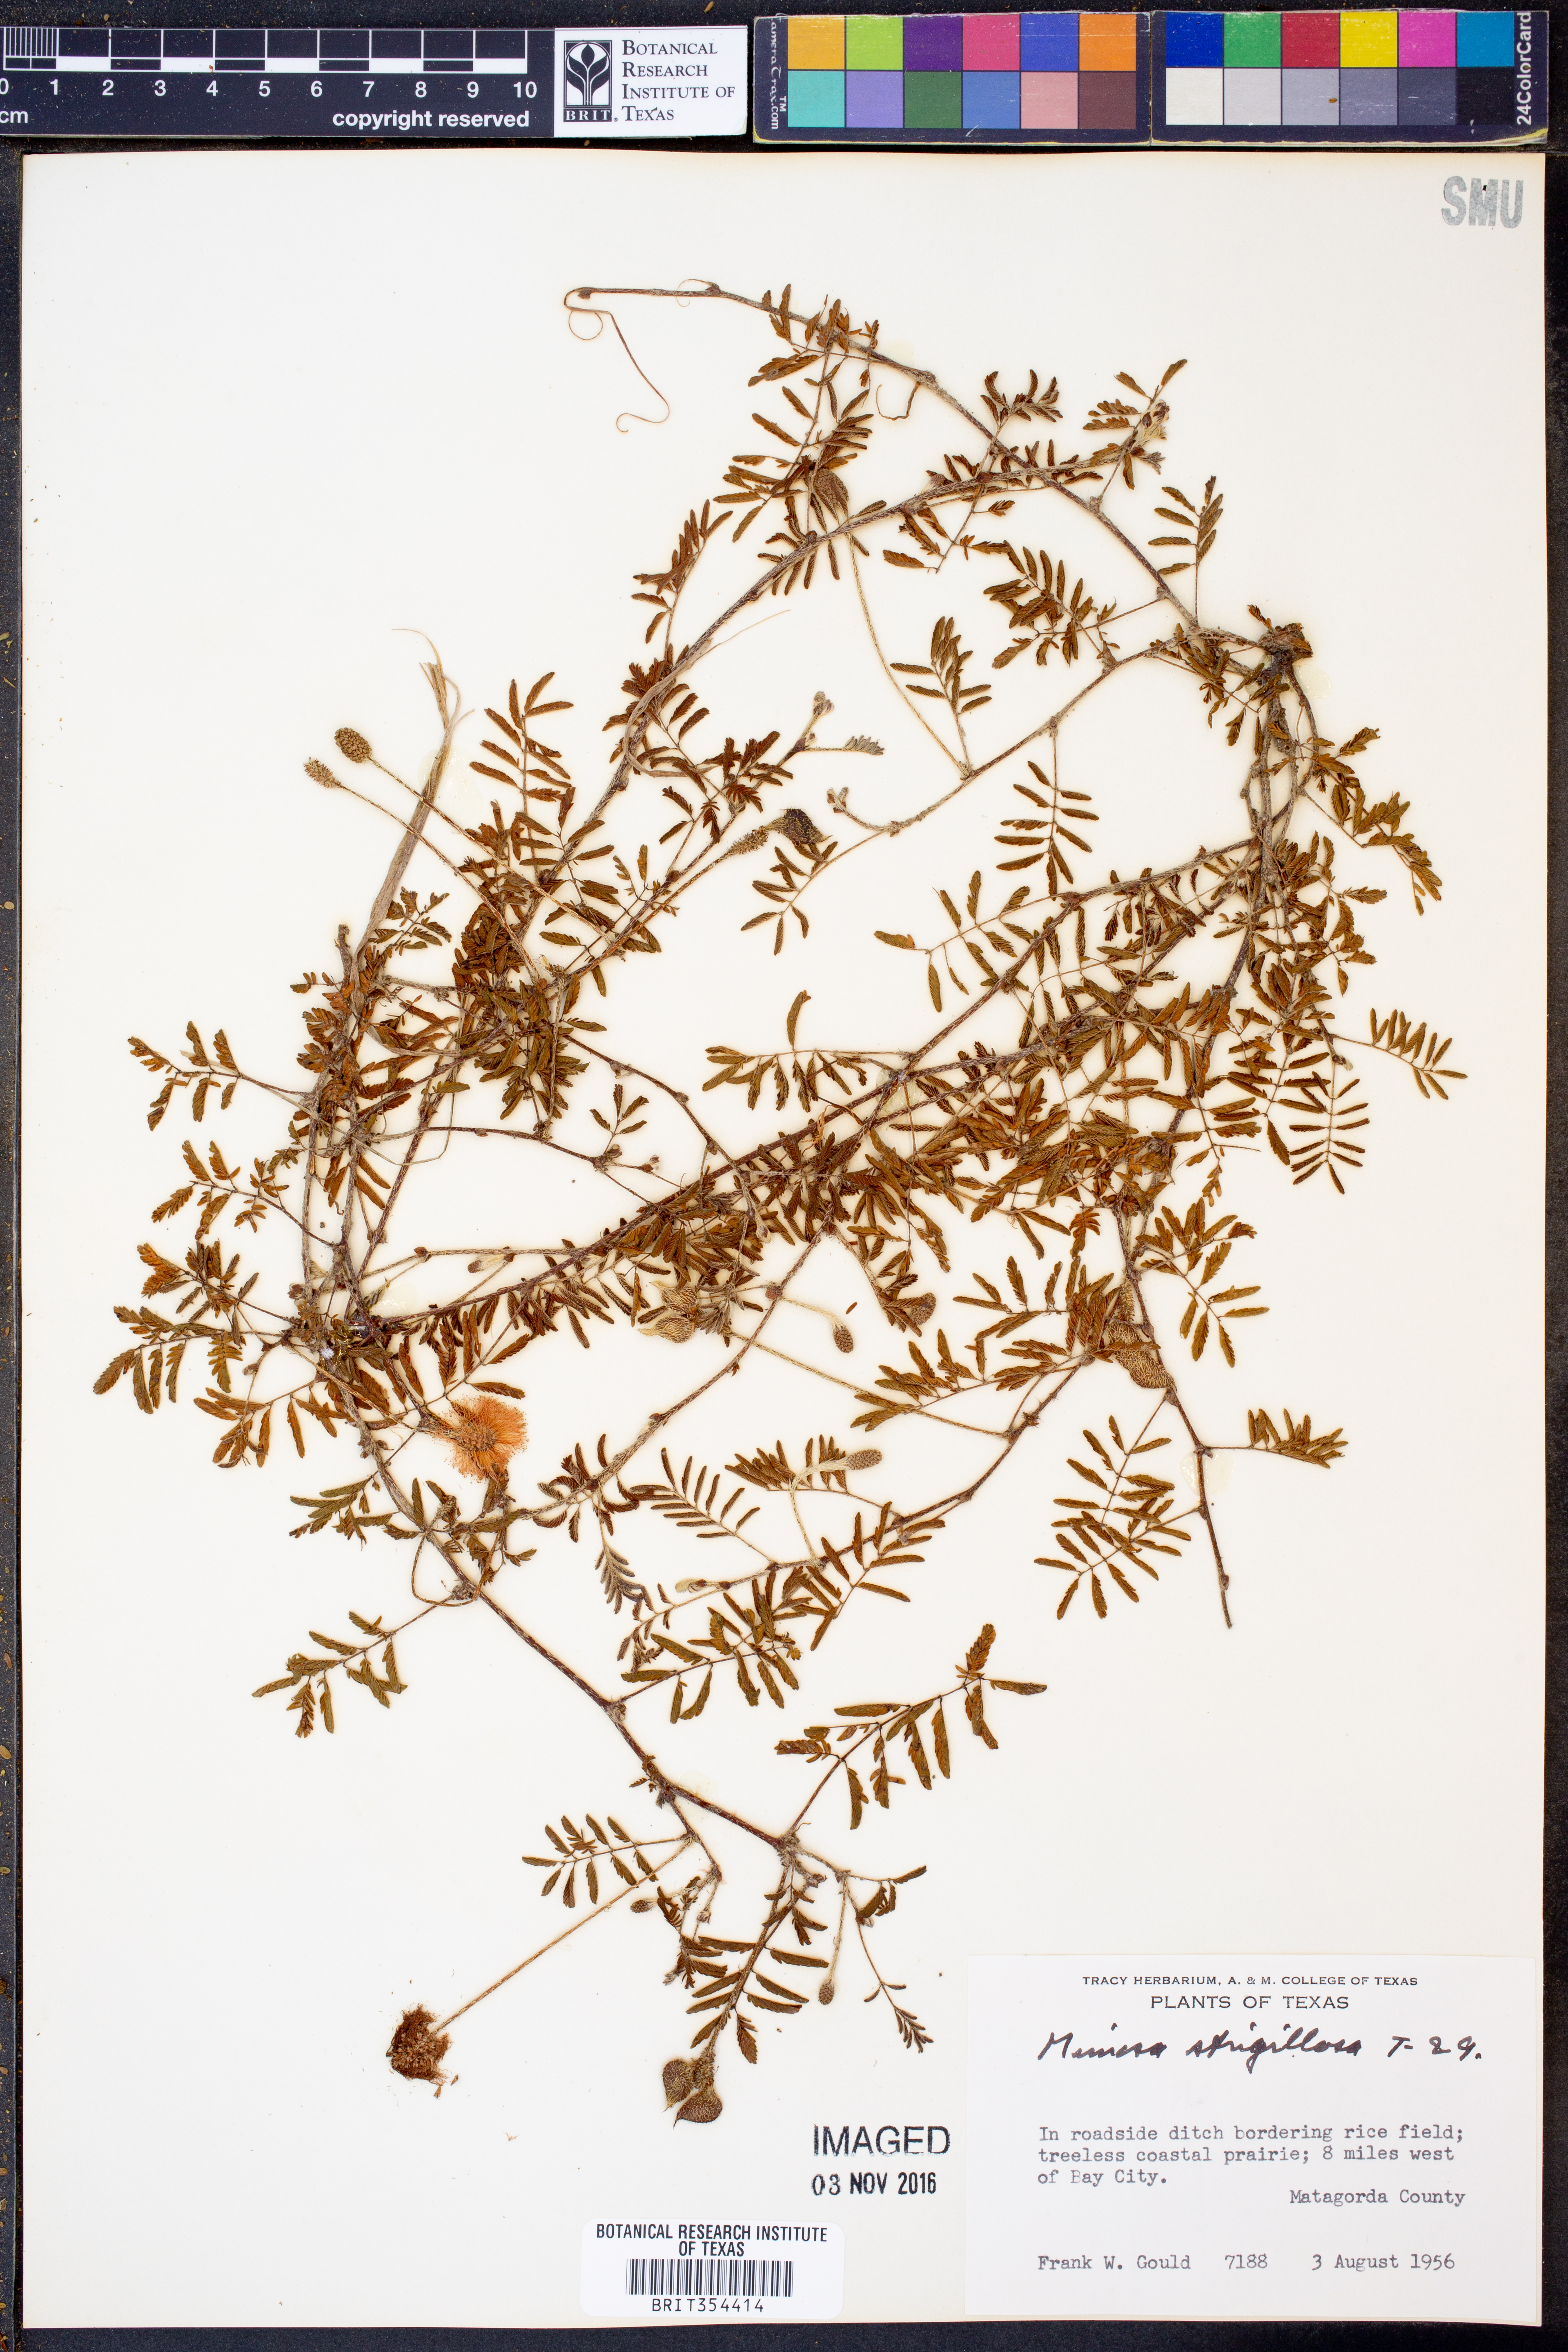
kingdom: Plantae
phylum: Tracheophyta
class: Magnoliopsida
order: Fabales
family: Fabaceae
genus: Mimosa
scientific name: Mimosa strigillosa
